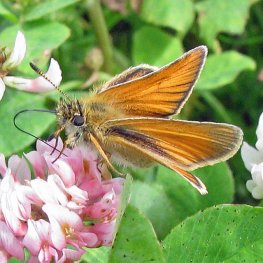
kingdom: Animalia
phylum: Arthropoda
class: Insecta
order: Lepidoptera
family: Hesperiidae
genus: Thymelicus
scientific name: Thymelicus lineola
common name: European Skipper
